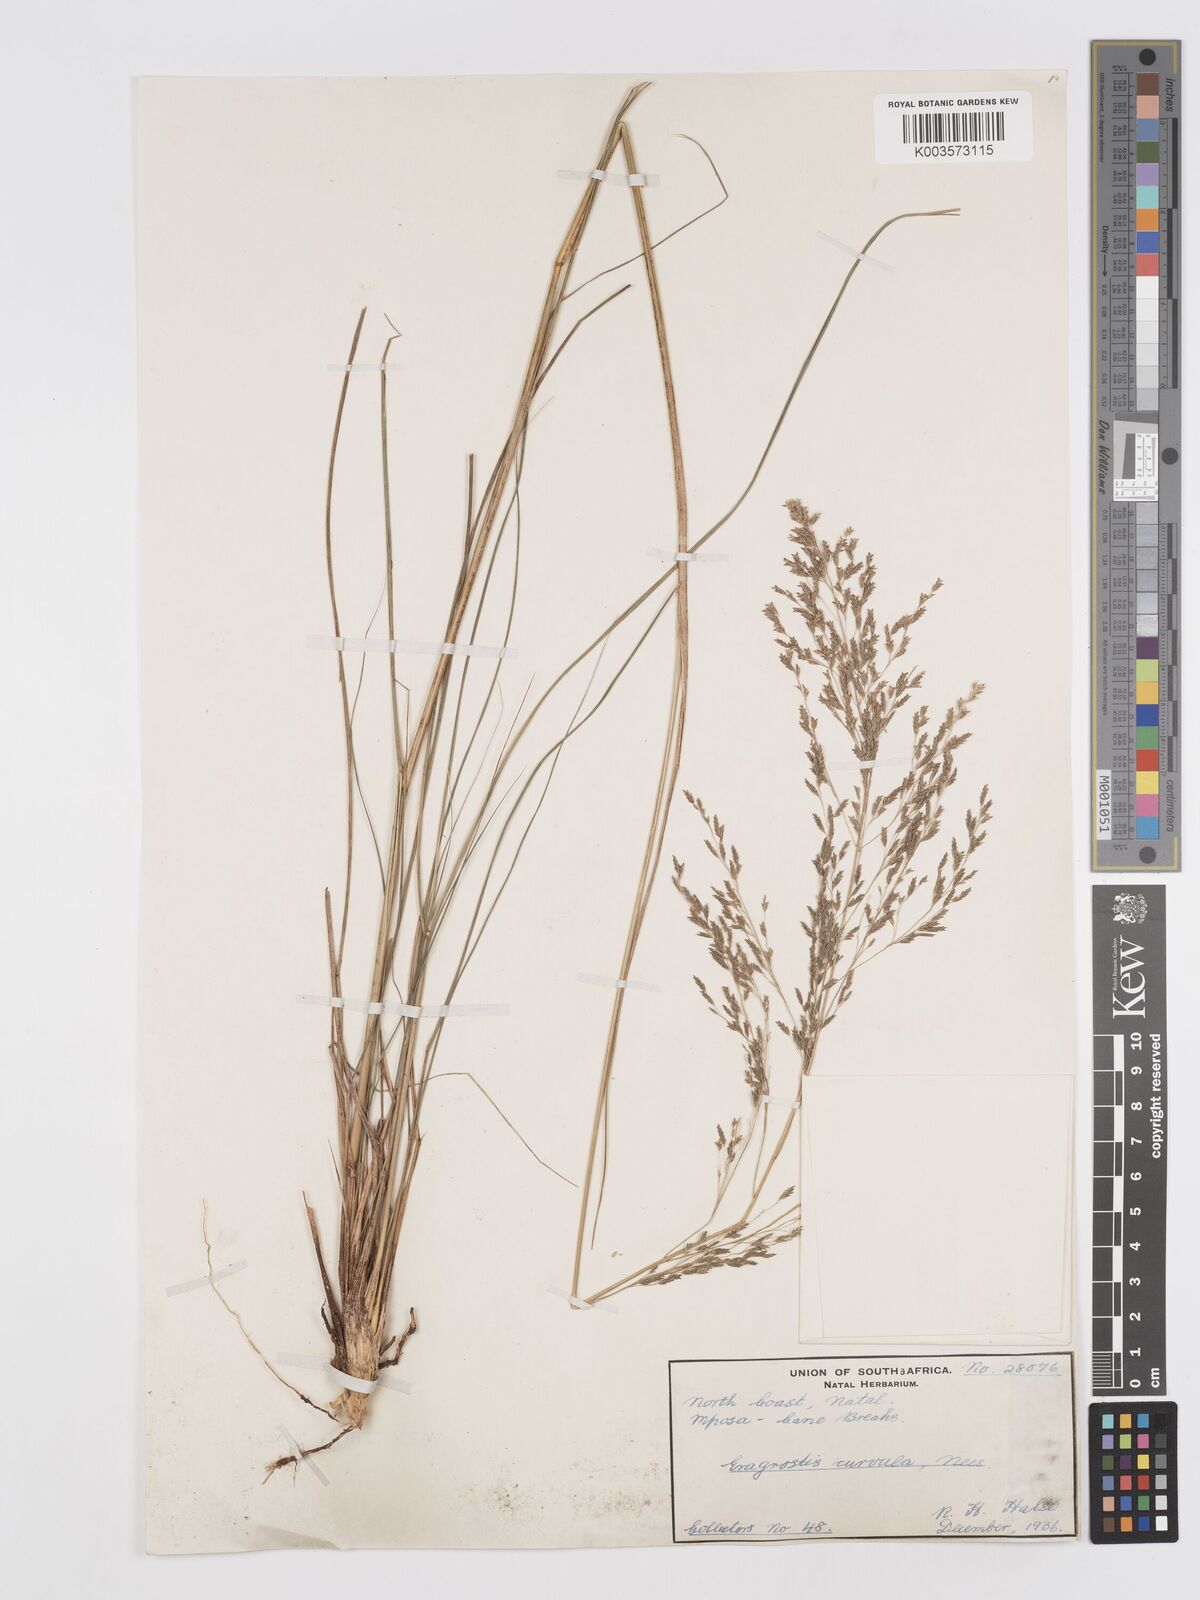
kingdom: Plantae
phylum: Tracheophyta
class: Liliopsida
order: Poales
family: Poaceae
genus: Eragrostis
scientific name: Eragrostis curvula
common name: African love-grass
